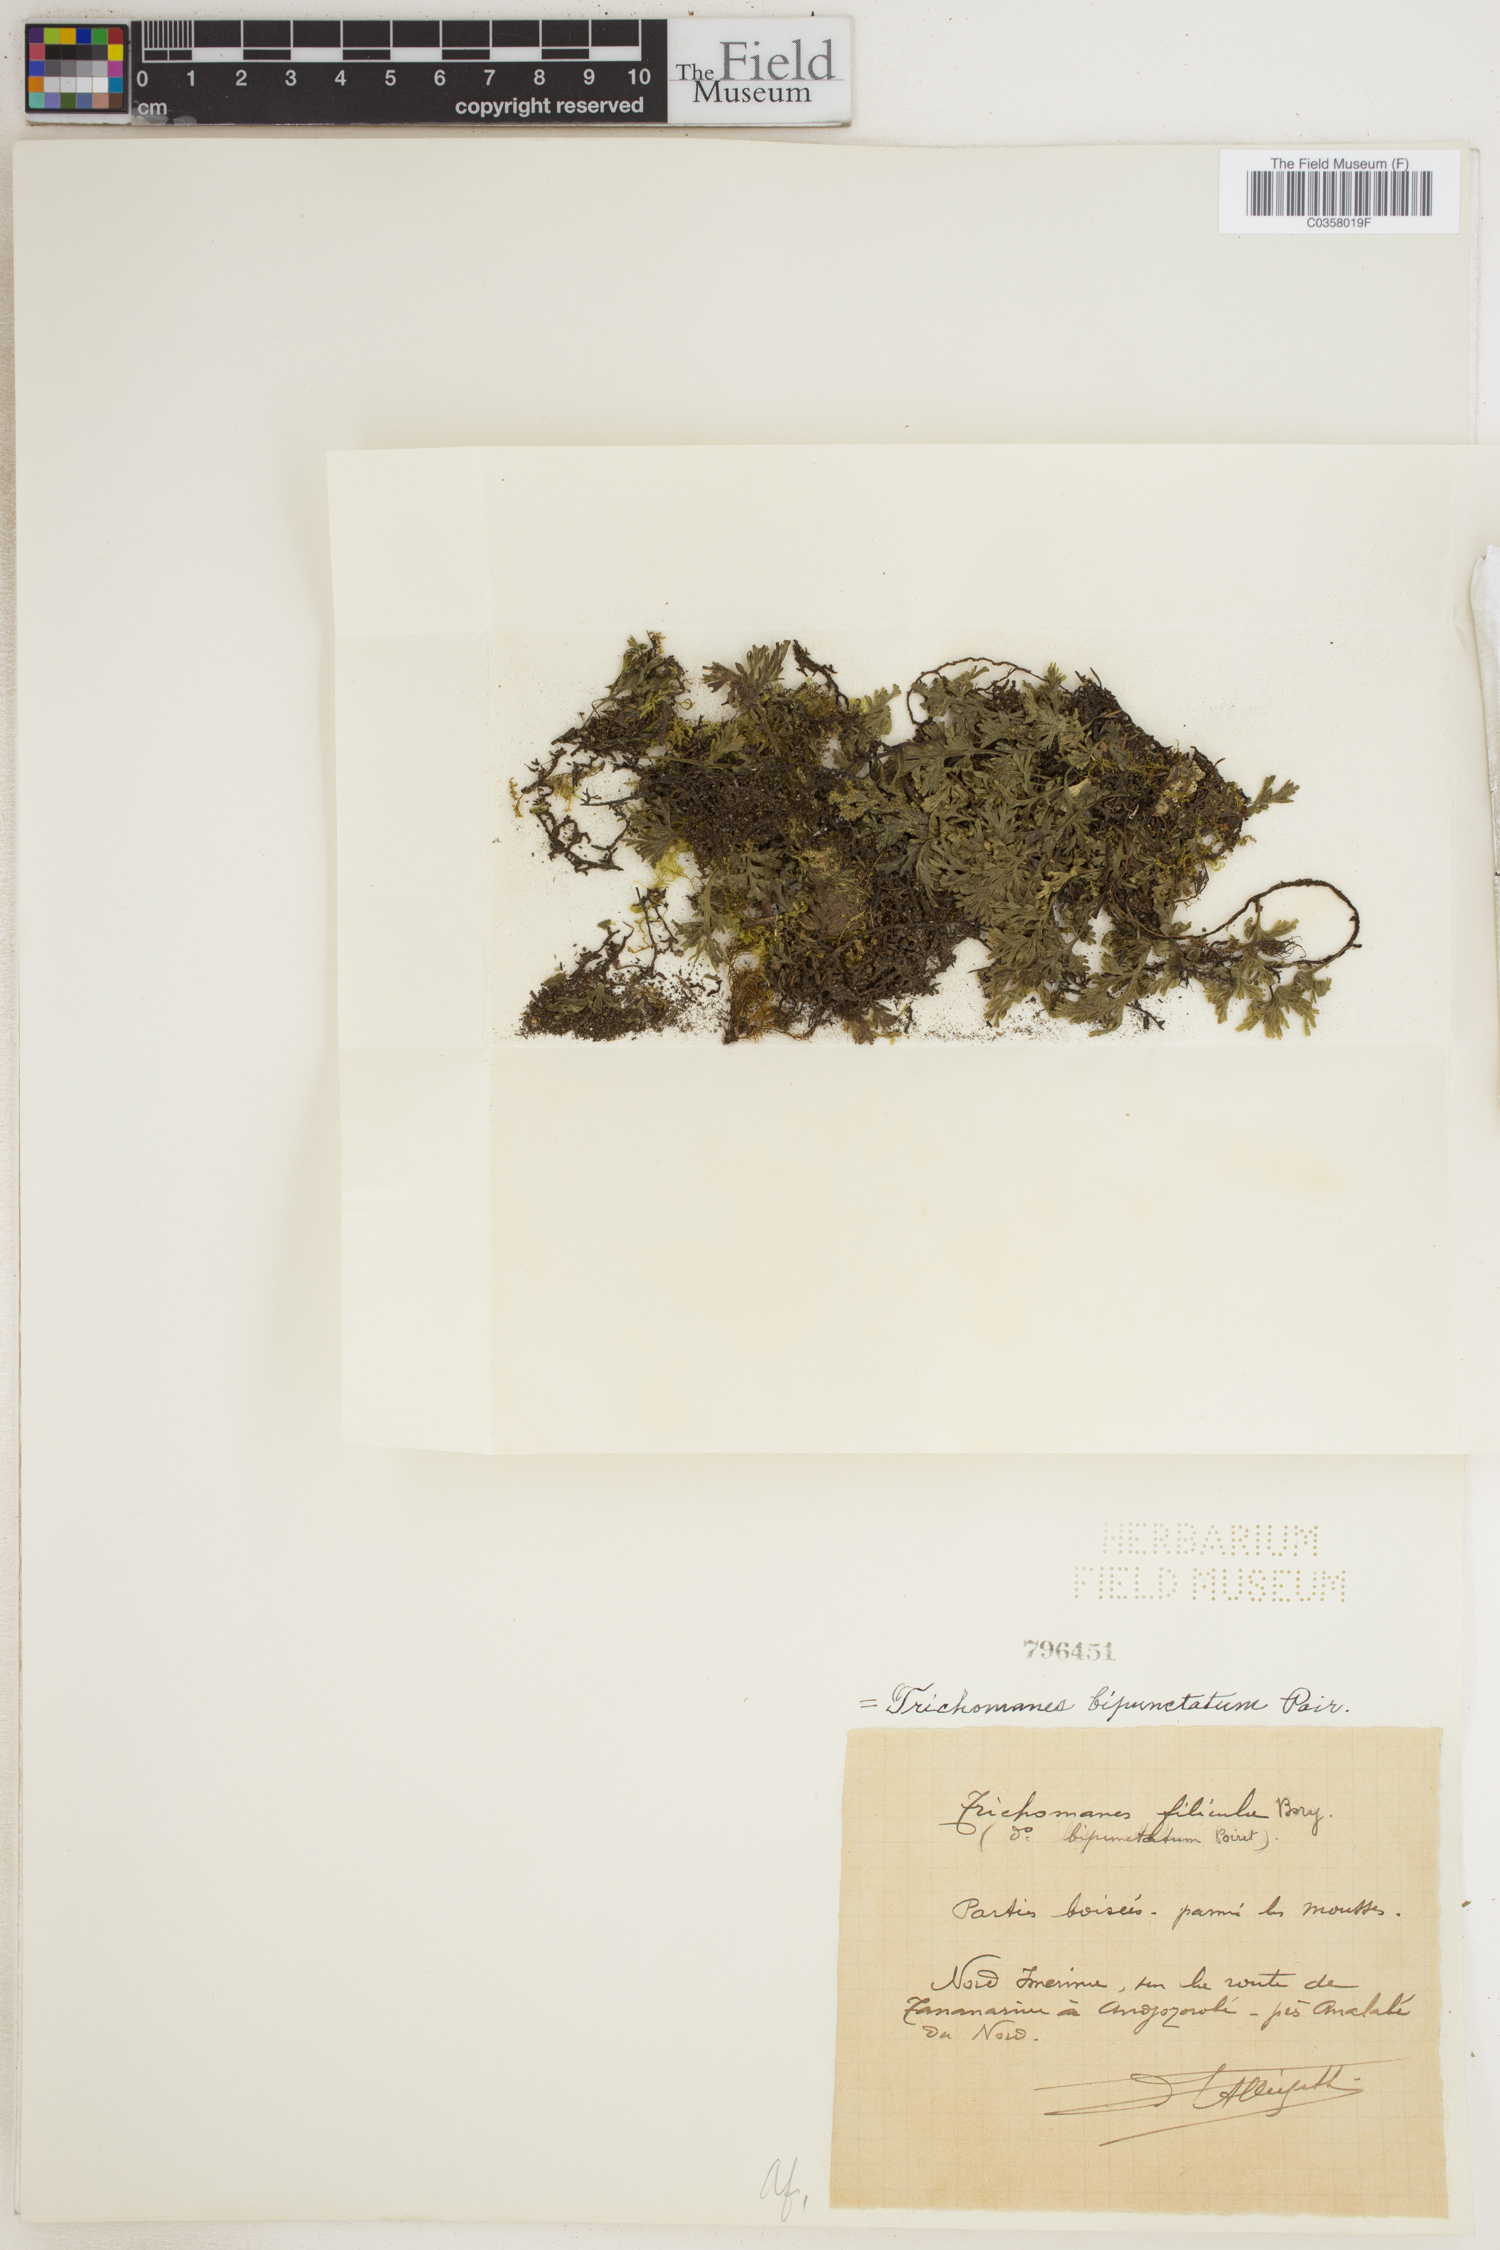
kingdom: Plantae
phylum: Tracheophyta
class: Polypodiopsida
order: Hymenophyllales
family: Hymenophyllaceae
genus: Crepidomanes
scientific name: Crepidomanes bipunctatum
